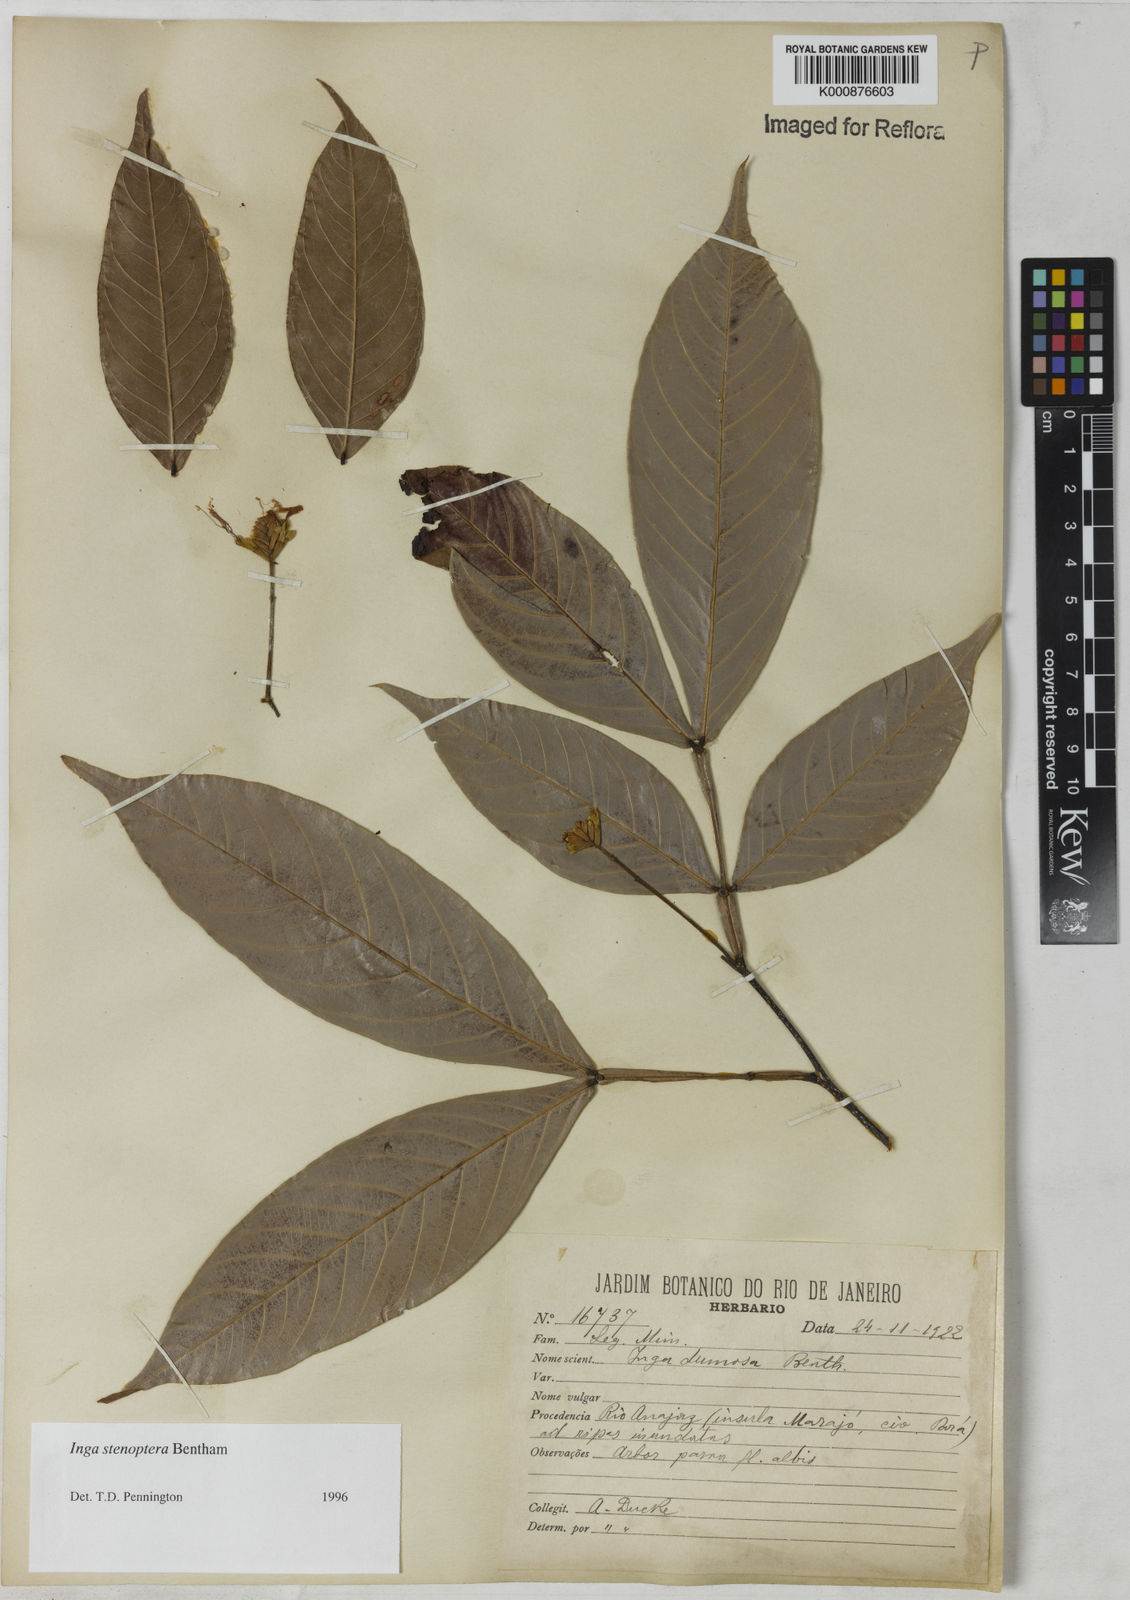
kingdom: Plantae
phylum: Tracheophyta
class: Magnoliopsida
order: Fabales
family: Fabaceae
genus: Inga
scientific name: Inga stenoptera
